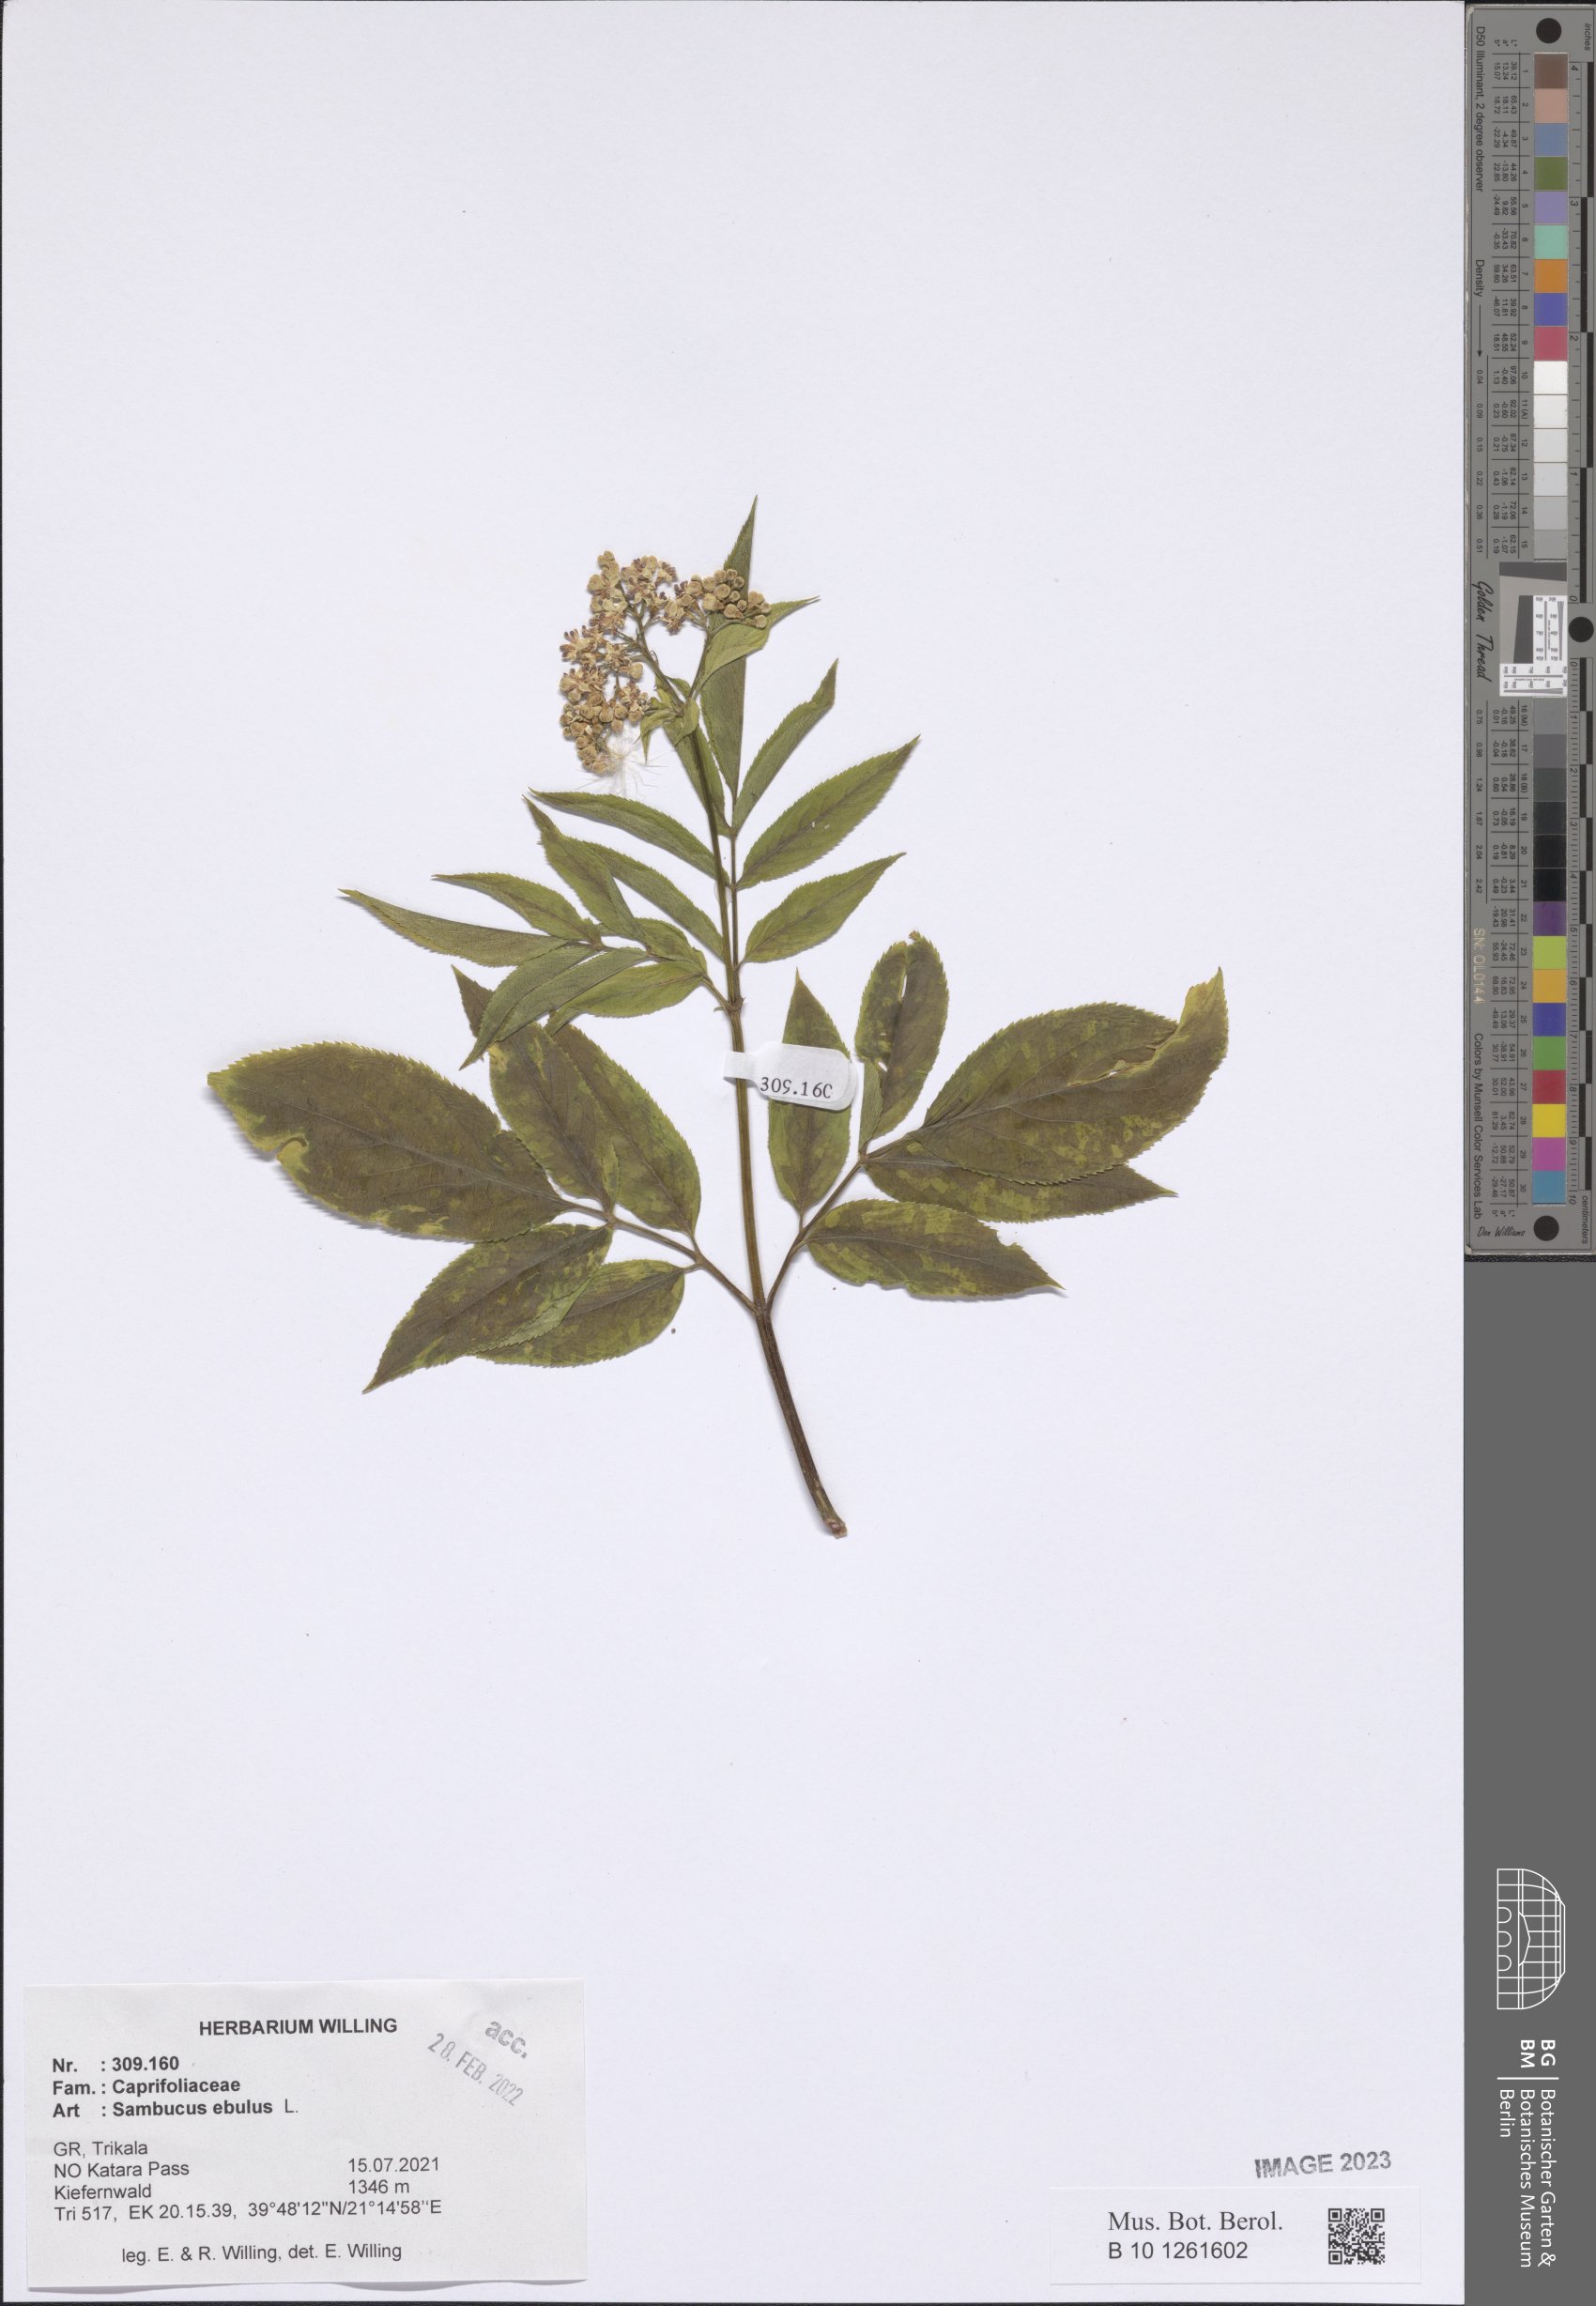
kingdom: Plantae
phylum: Tracheophyta
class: Magnoliopsida
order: Dipsacales
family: Viburnaceae
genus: Sambucus
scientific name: Sambucus ebulus
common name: Dwarf elder
